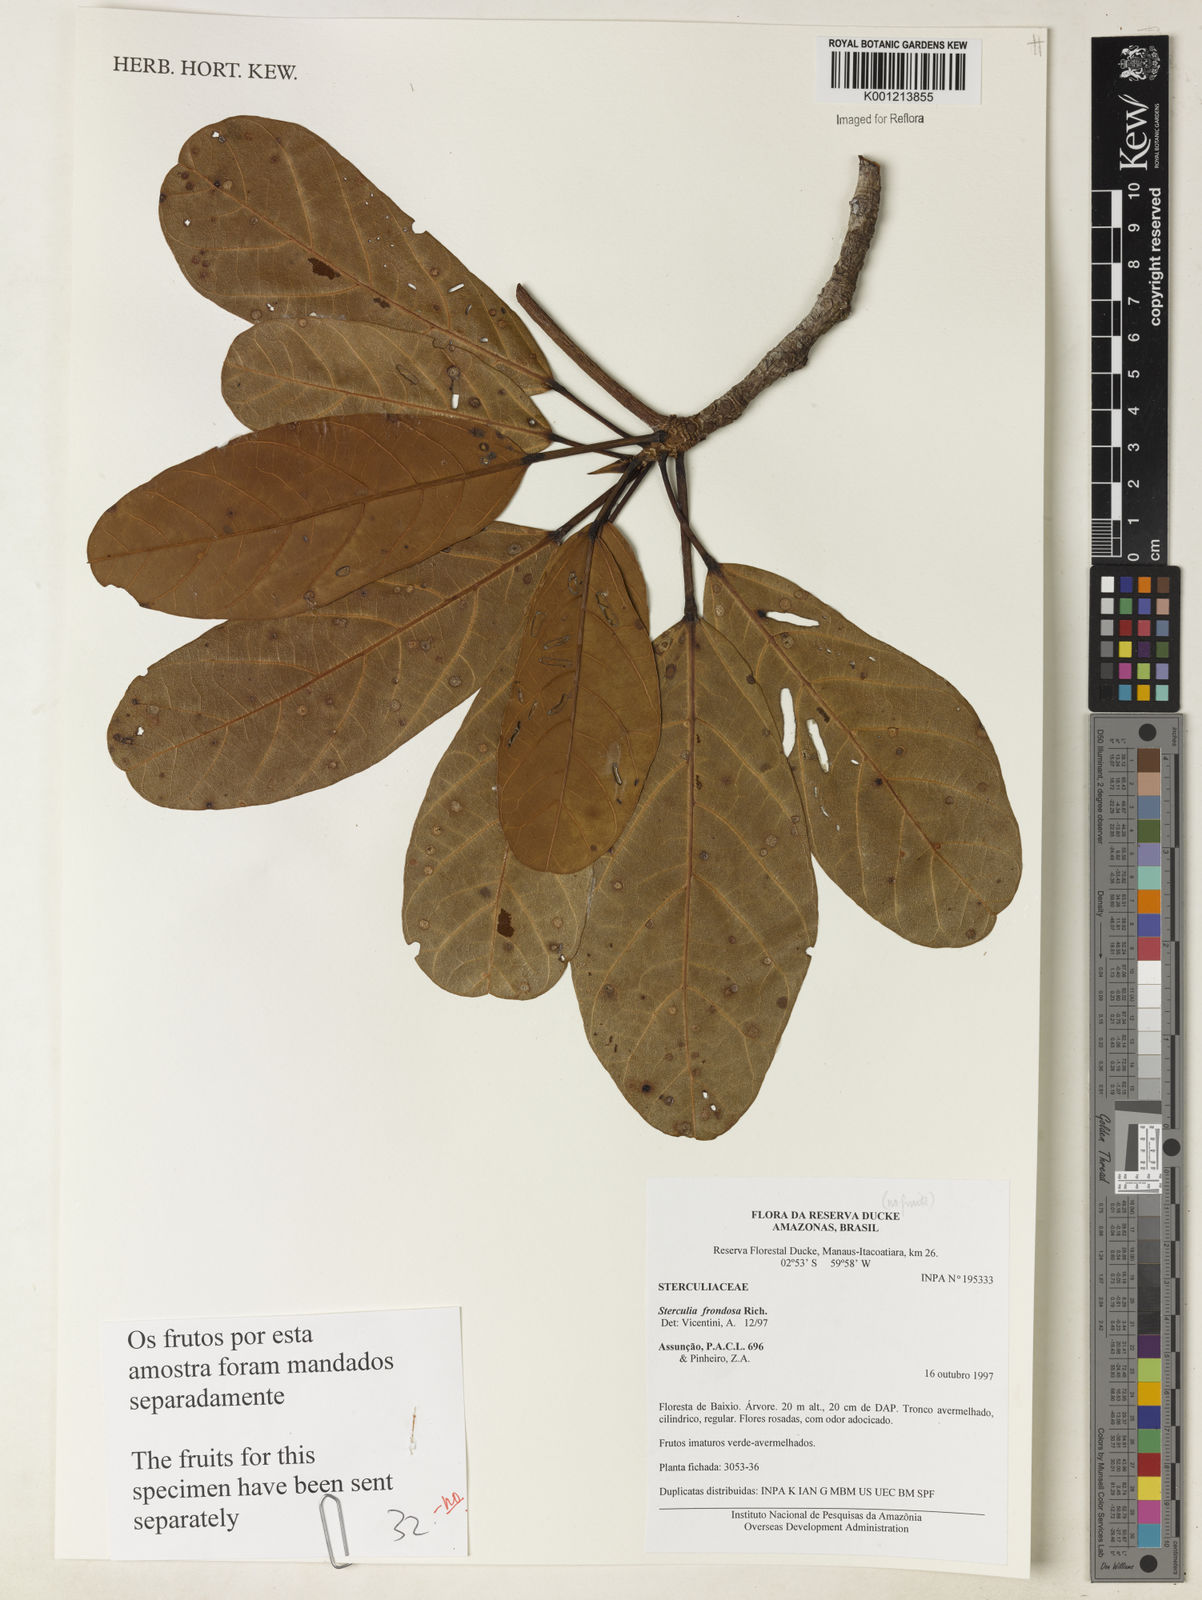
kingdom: Plantae
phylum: Tracheophyta
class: Magnoliopsida
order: Malvales
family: Malvaceae
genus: Sterculia
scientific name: Sterculia frondosa
